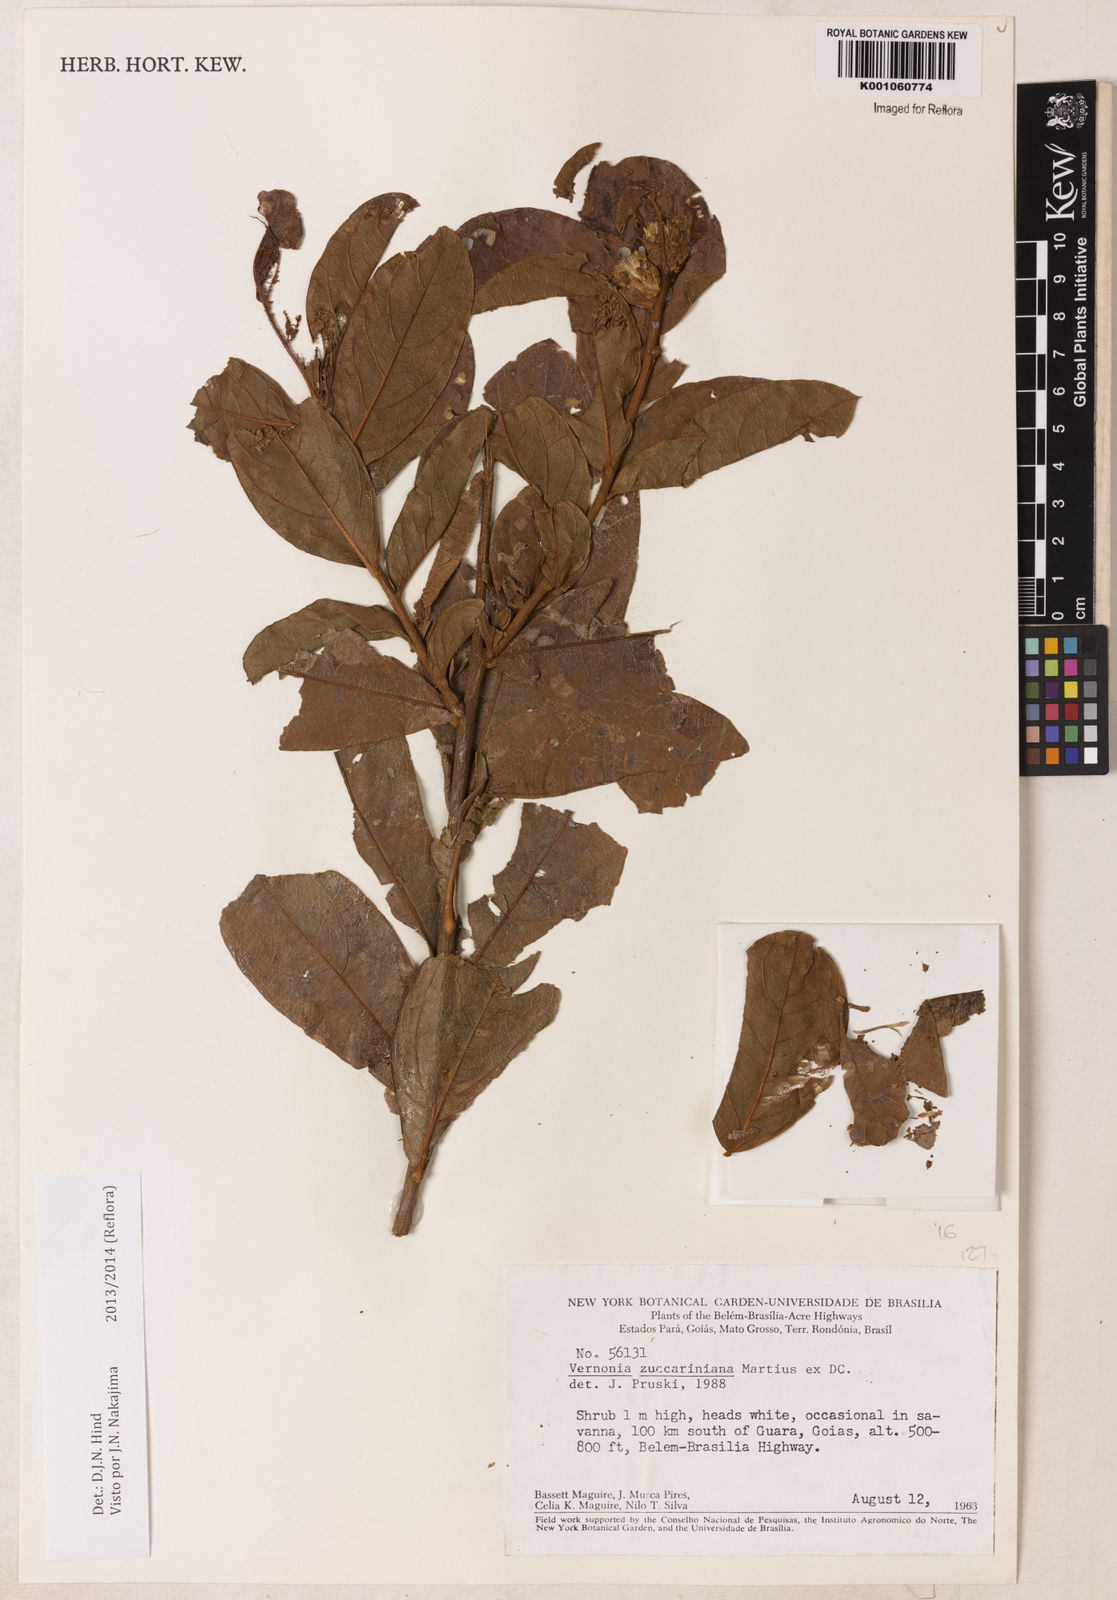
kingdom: Plantae
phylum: Tracheophyta
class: Magnoliopsida
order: Asterales
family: Asteraceae
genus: Lessingianthus
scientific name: Lessingianthus zuccarinianus
